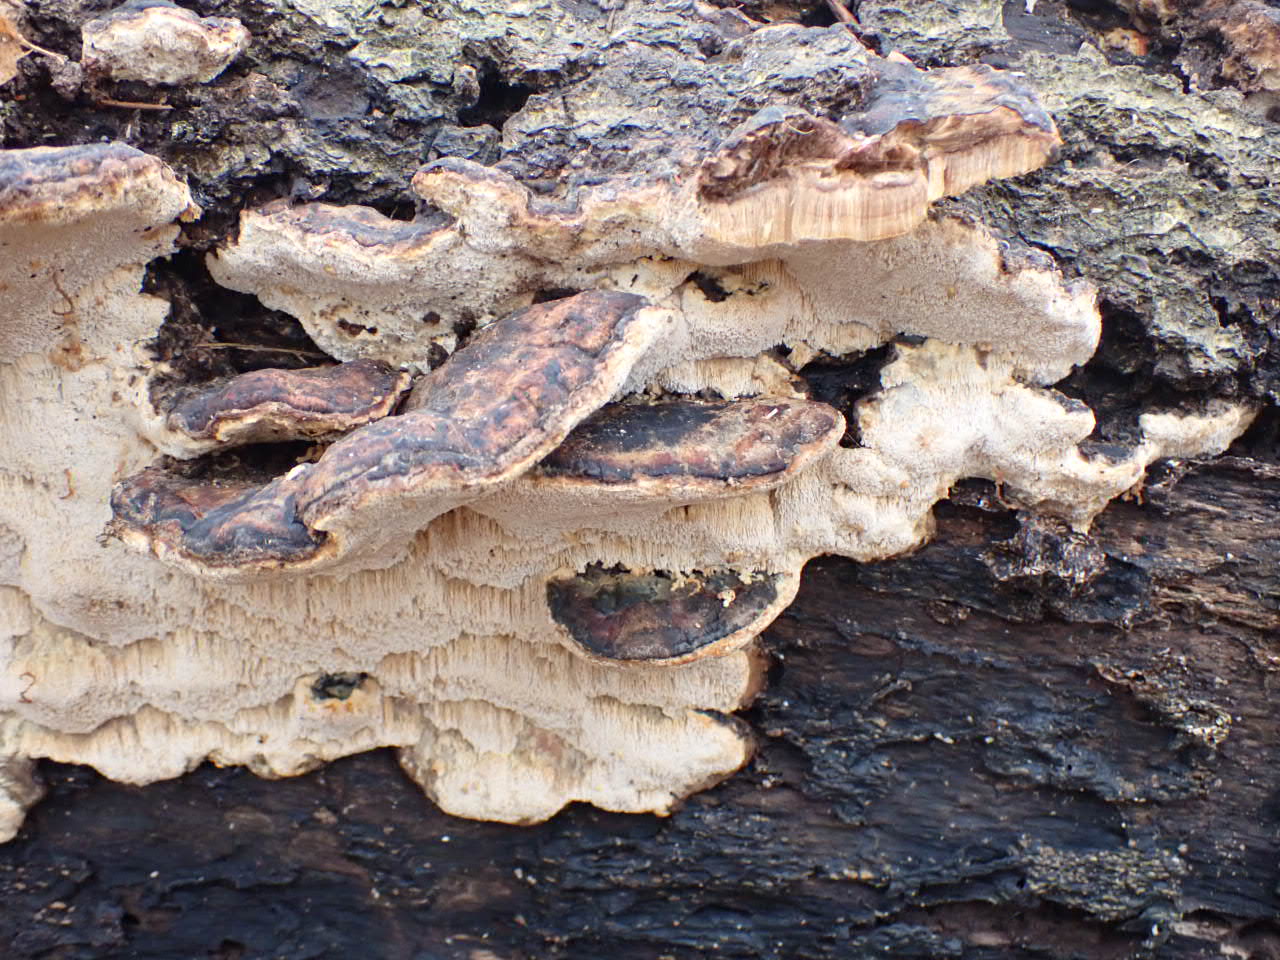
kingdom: Fungi
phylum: Basidiomycota
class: Agaricomycetes
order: Polyporales
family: Ischnodermataceae
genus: Ischnoderma
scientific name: Ischnoderma resinosum
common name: løv-tjæreporesvamp
